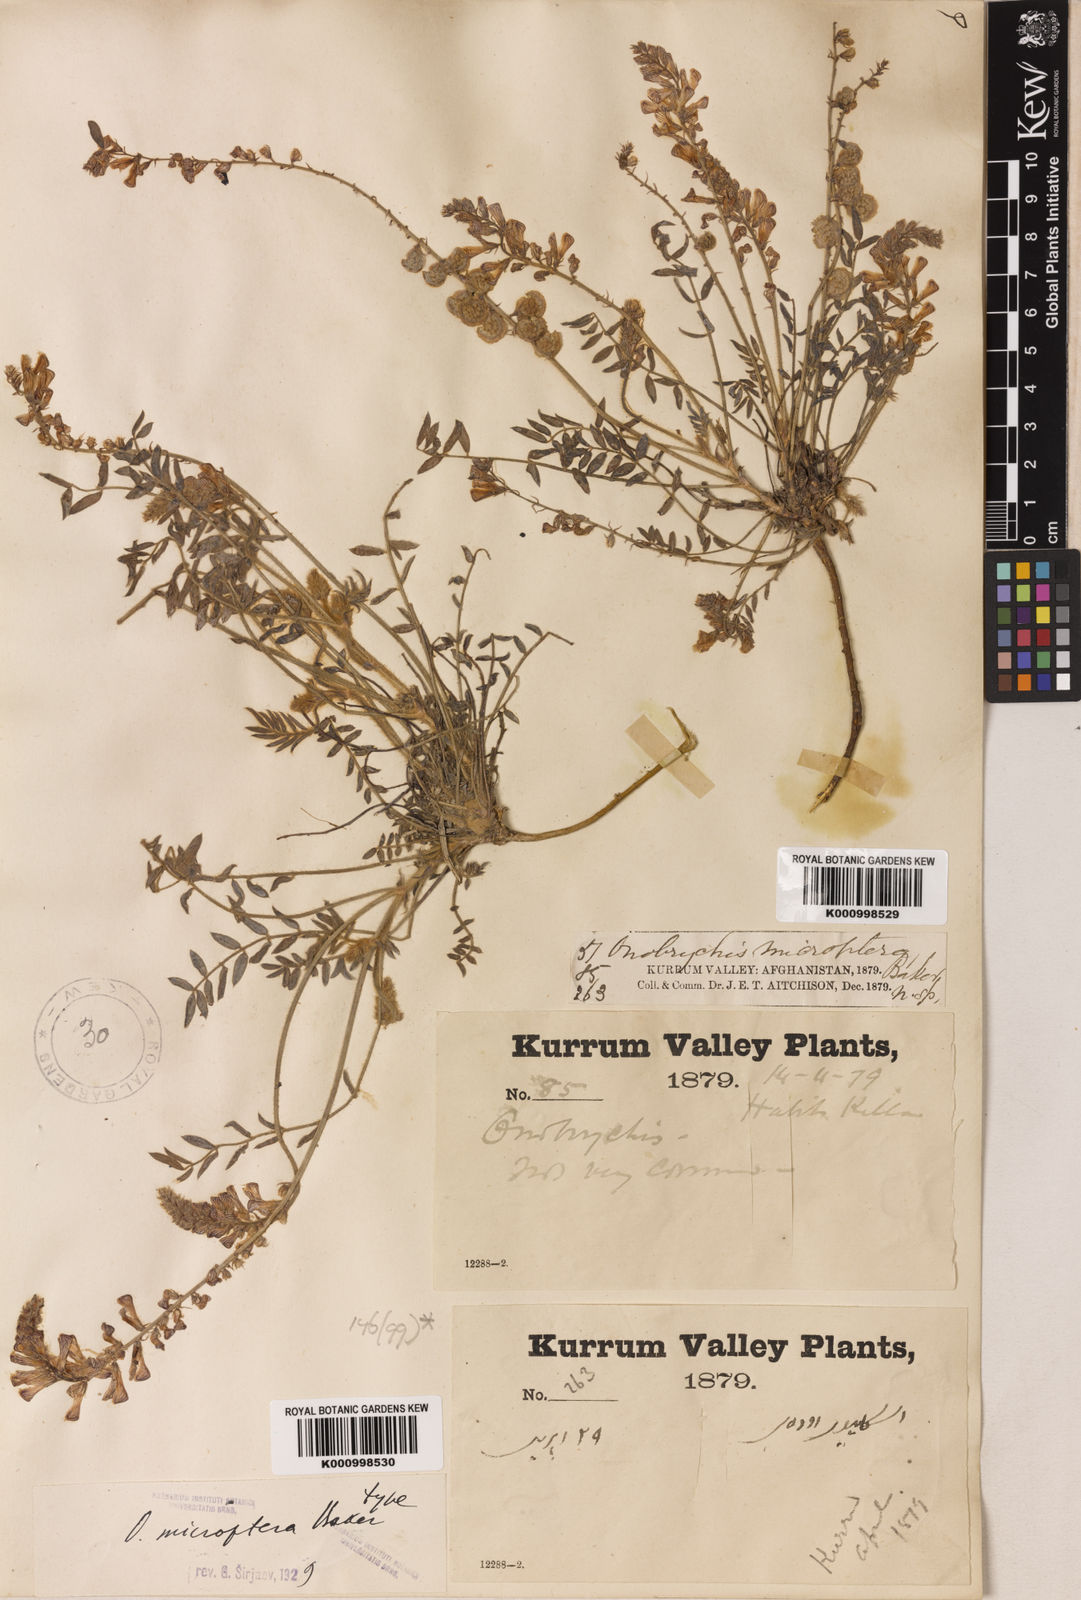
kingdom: Plantae
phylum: Tracheophyta
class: Magnoliopsida
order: Fabales
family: Fabaceae
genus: Onobrychis
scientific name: Onobrychis microptera
